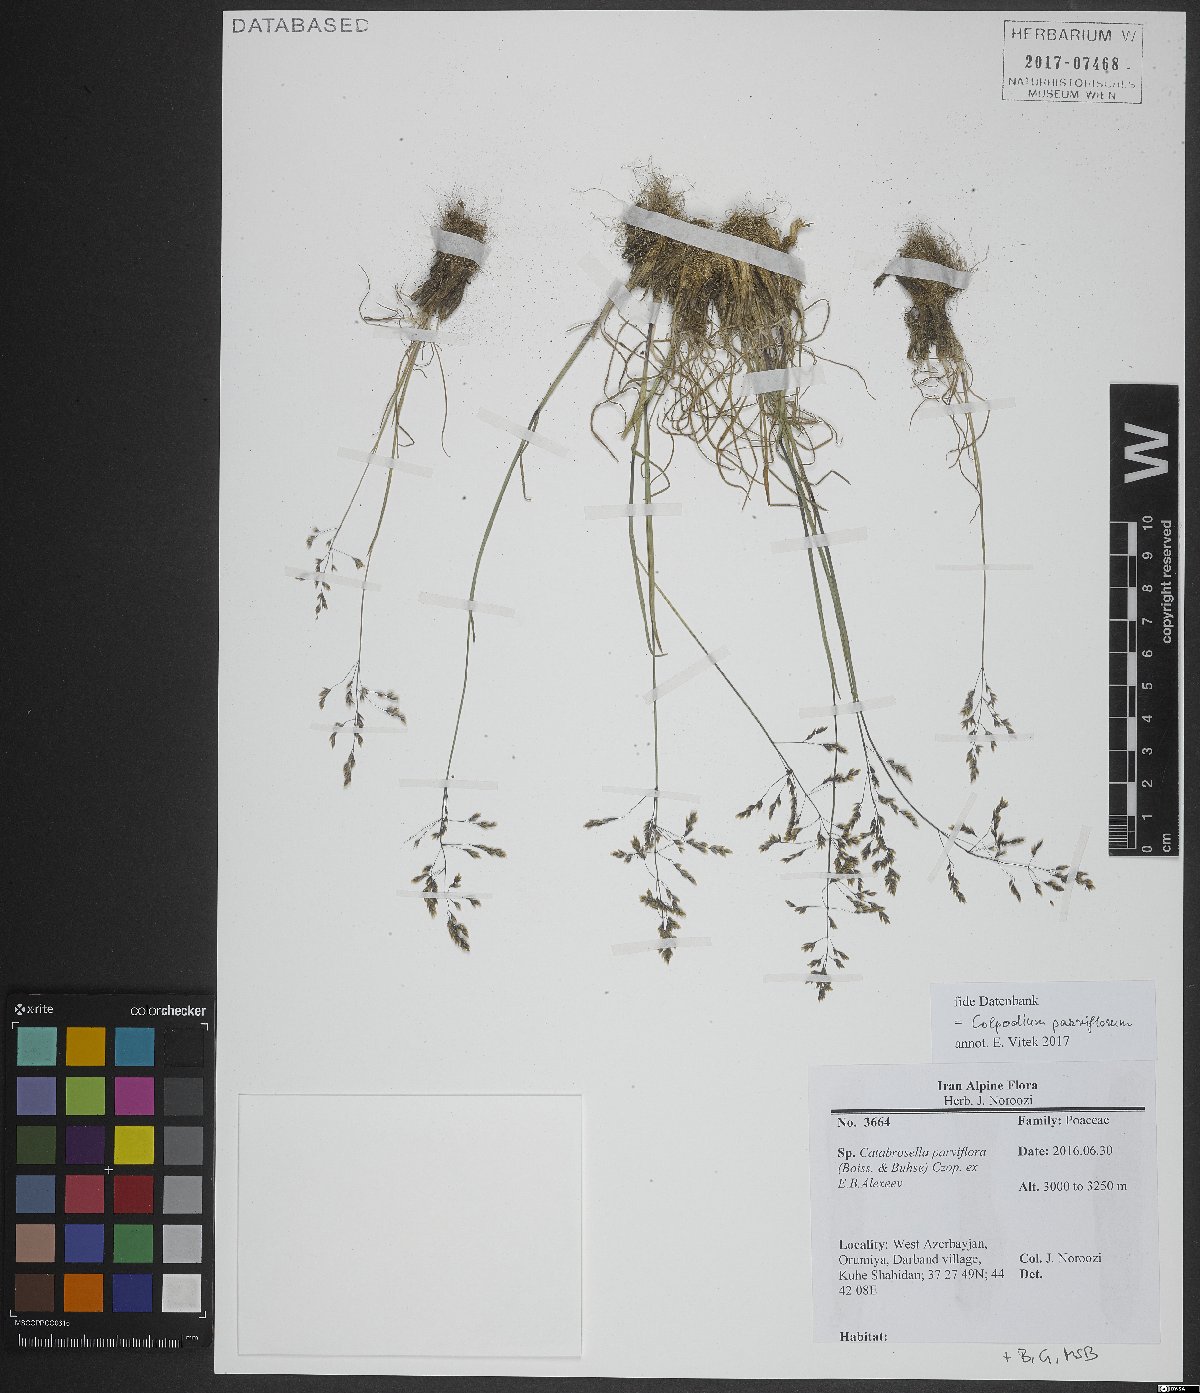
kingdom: Plantae
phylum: Tracheophyta
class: Liliopsida
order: Poales
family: Poaceae
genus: Catabrosella
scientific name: Catabrosella parviflora
